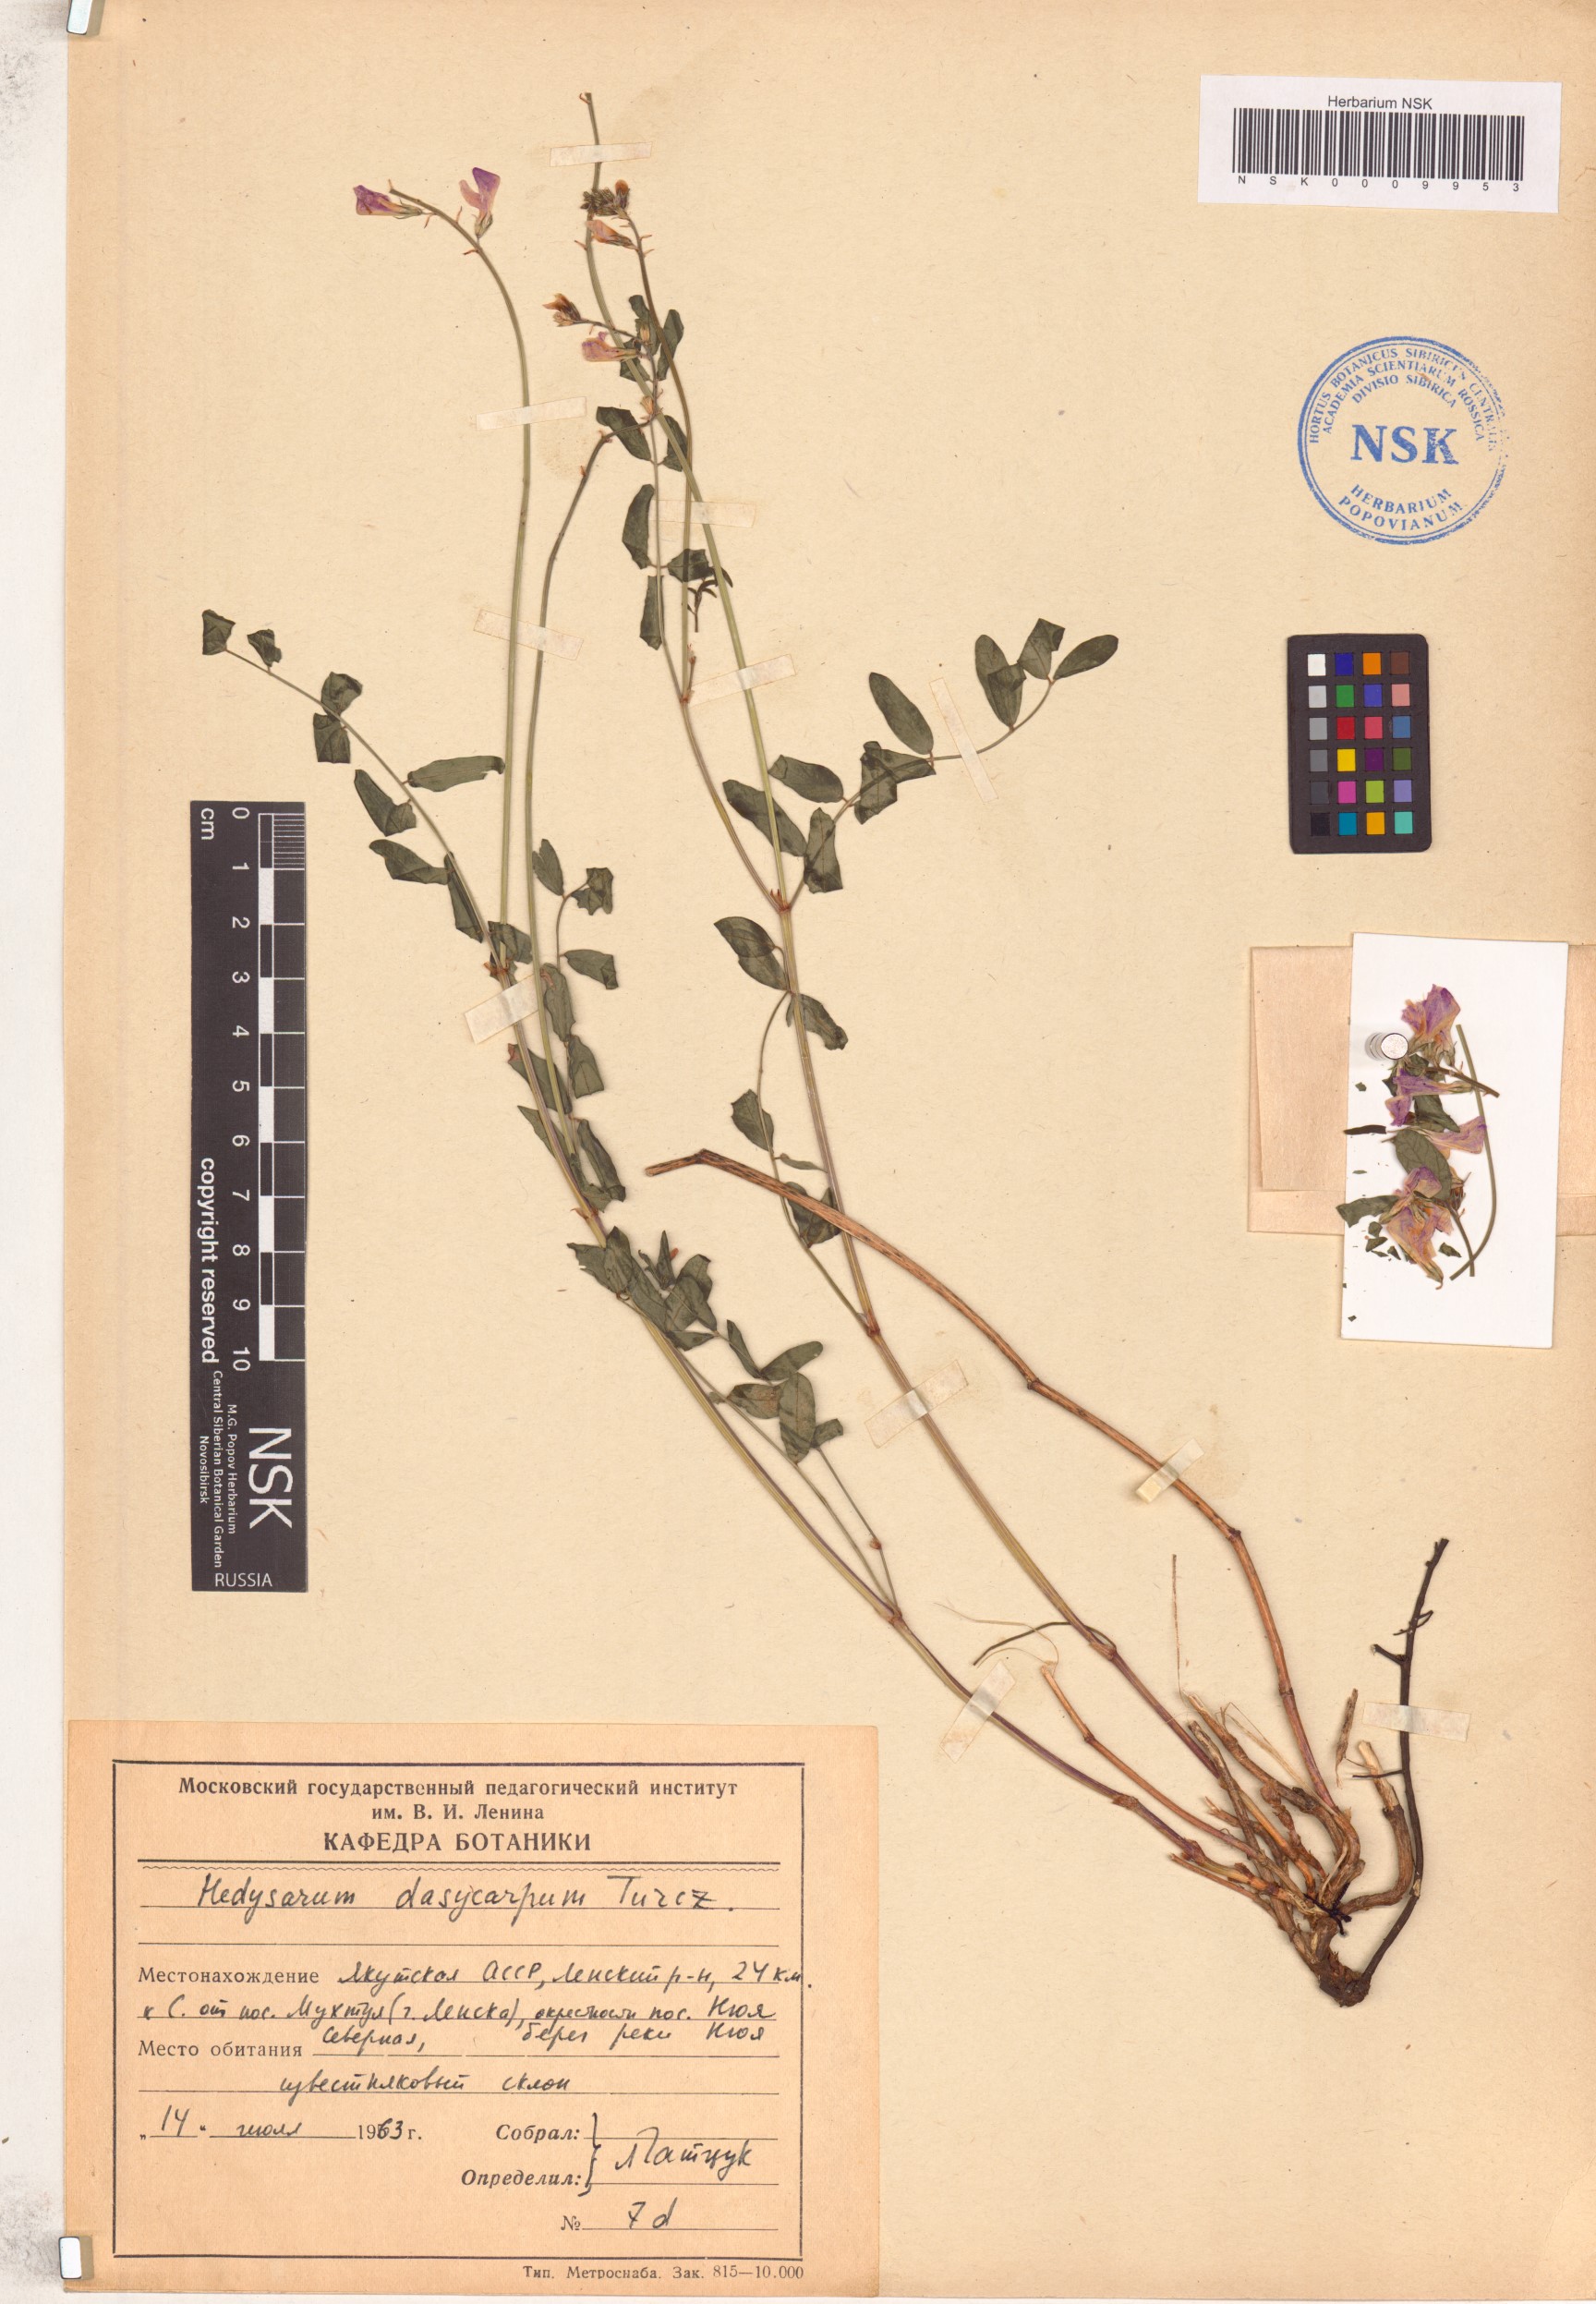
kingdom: Plantae
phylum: Tracheophyta
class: Magnoliopsida
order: Fabales
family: Fabaceae
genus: Hedysarum
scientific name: Hedysarum dasycarpum
